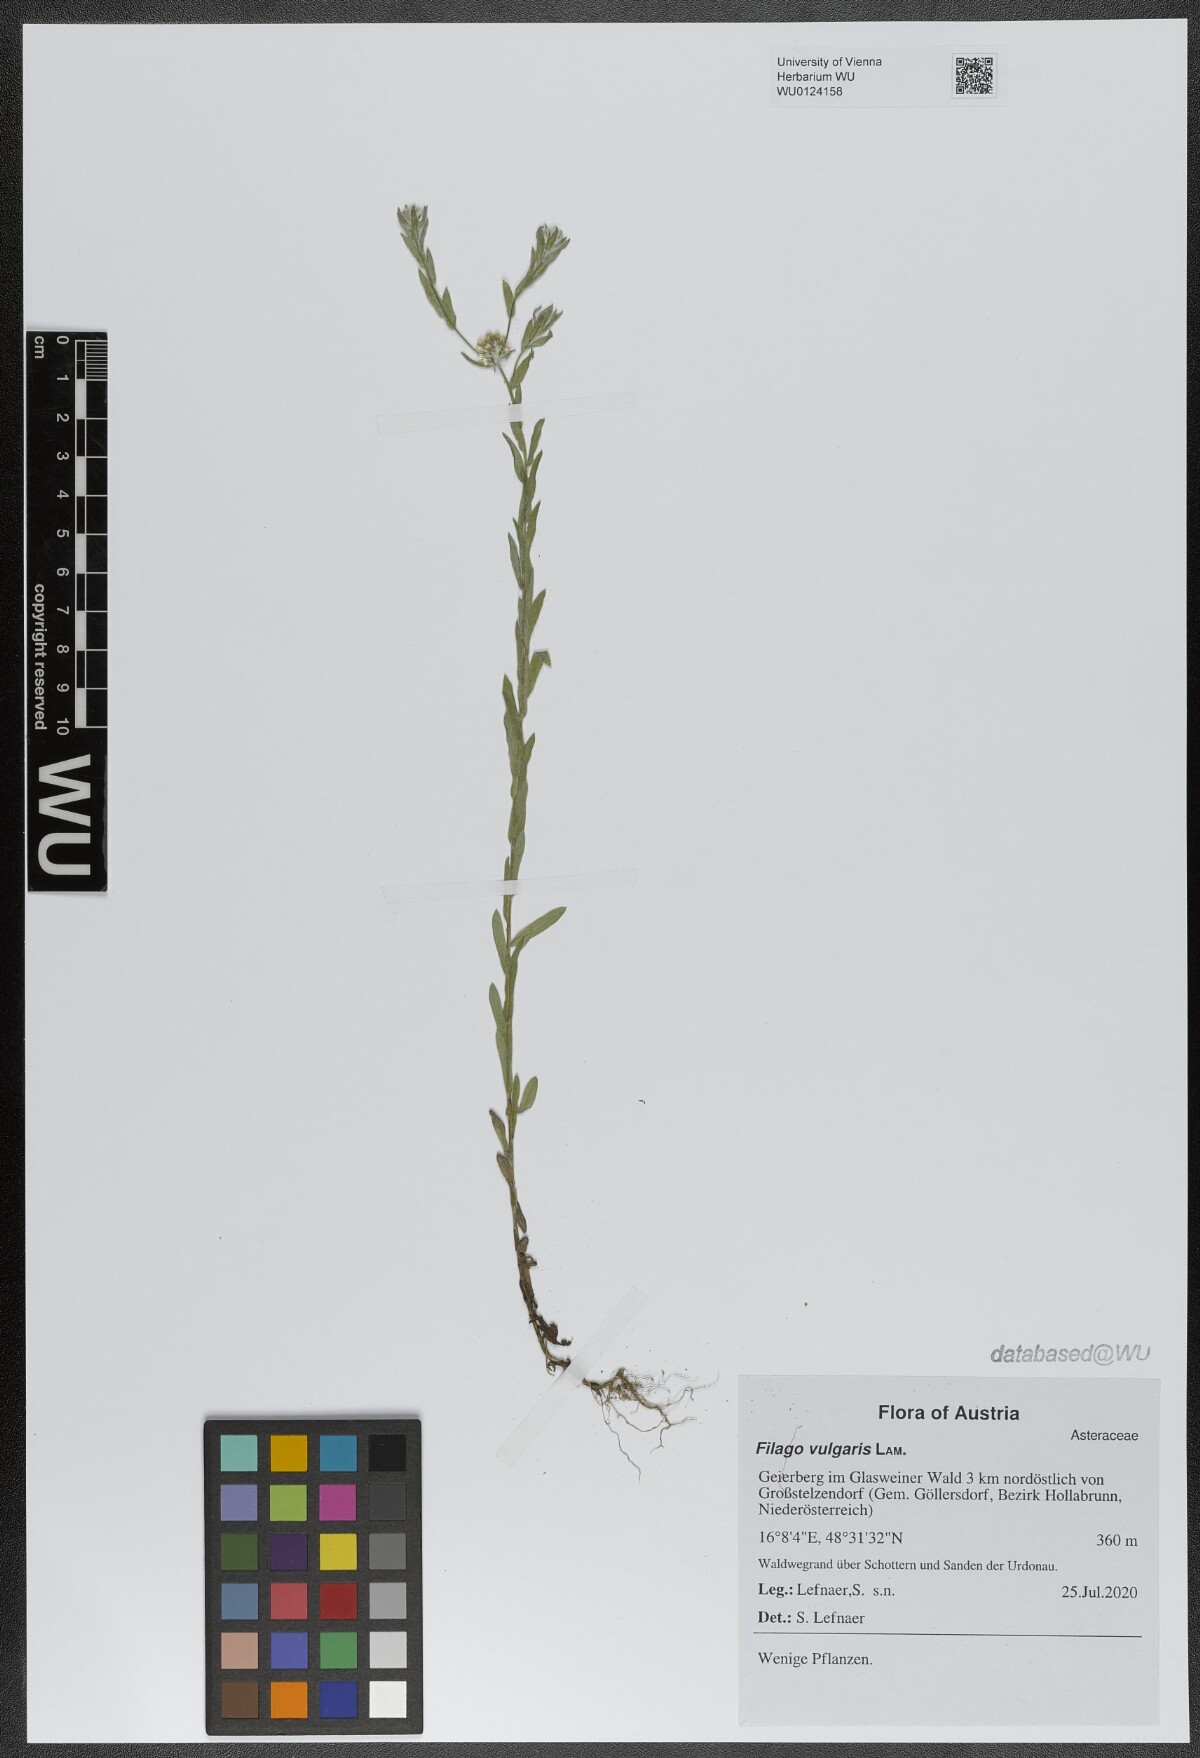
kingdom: Plantae
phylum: Tracheophyta
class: Magnoliopsida
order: Asterales
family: Asteraceae
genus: Filago
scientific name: Filago germanica
